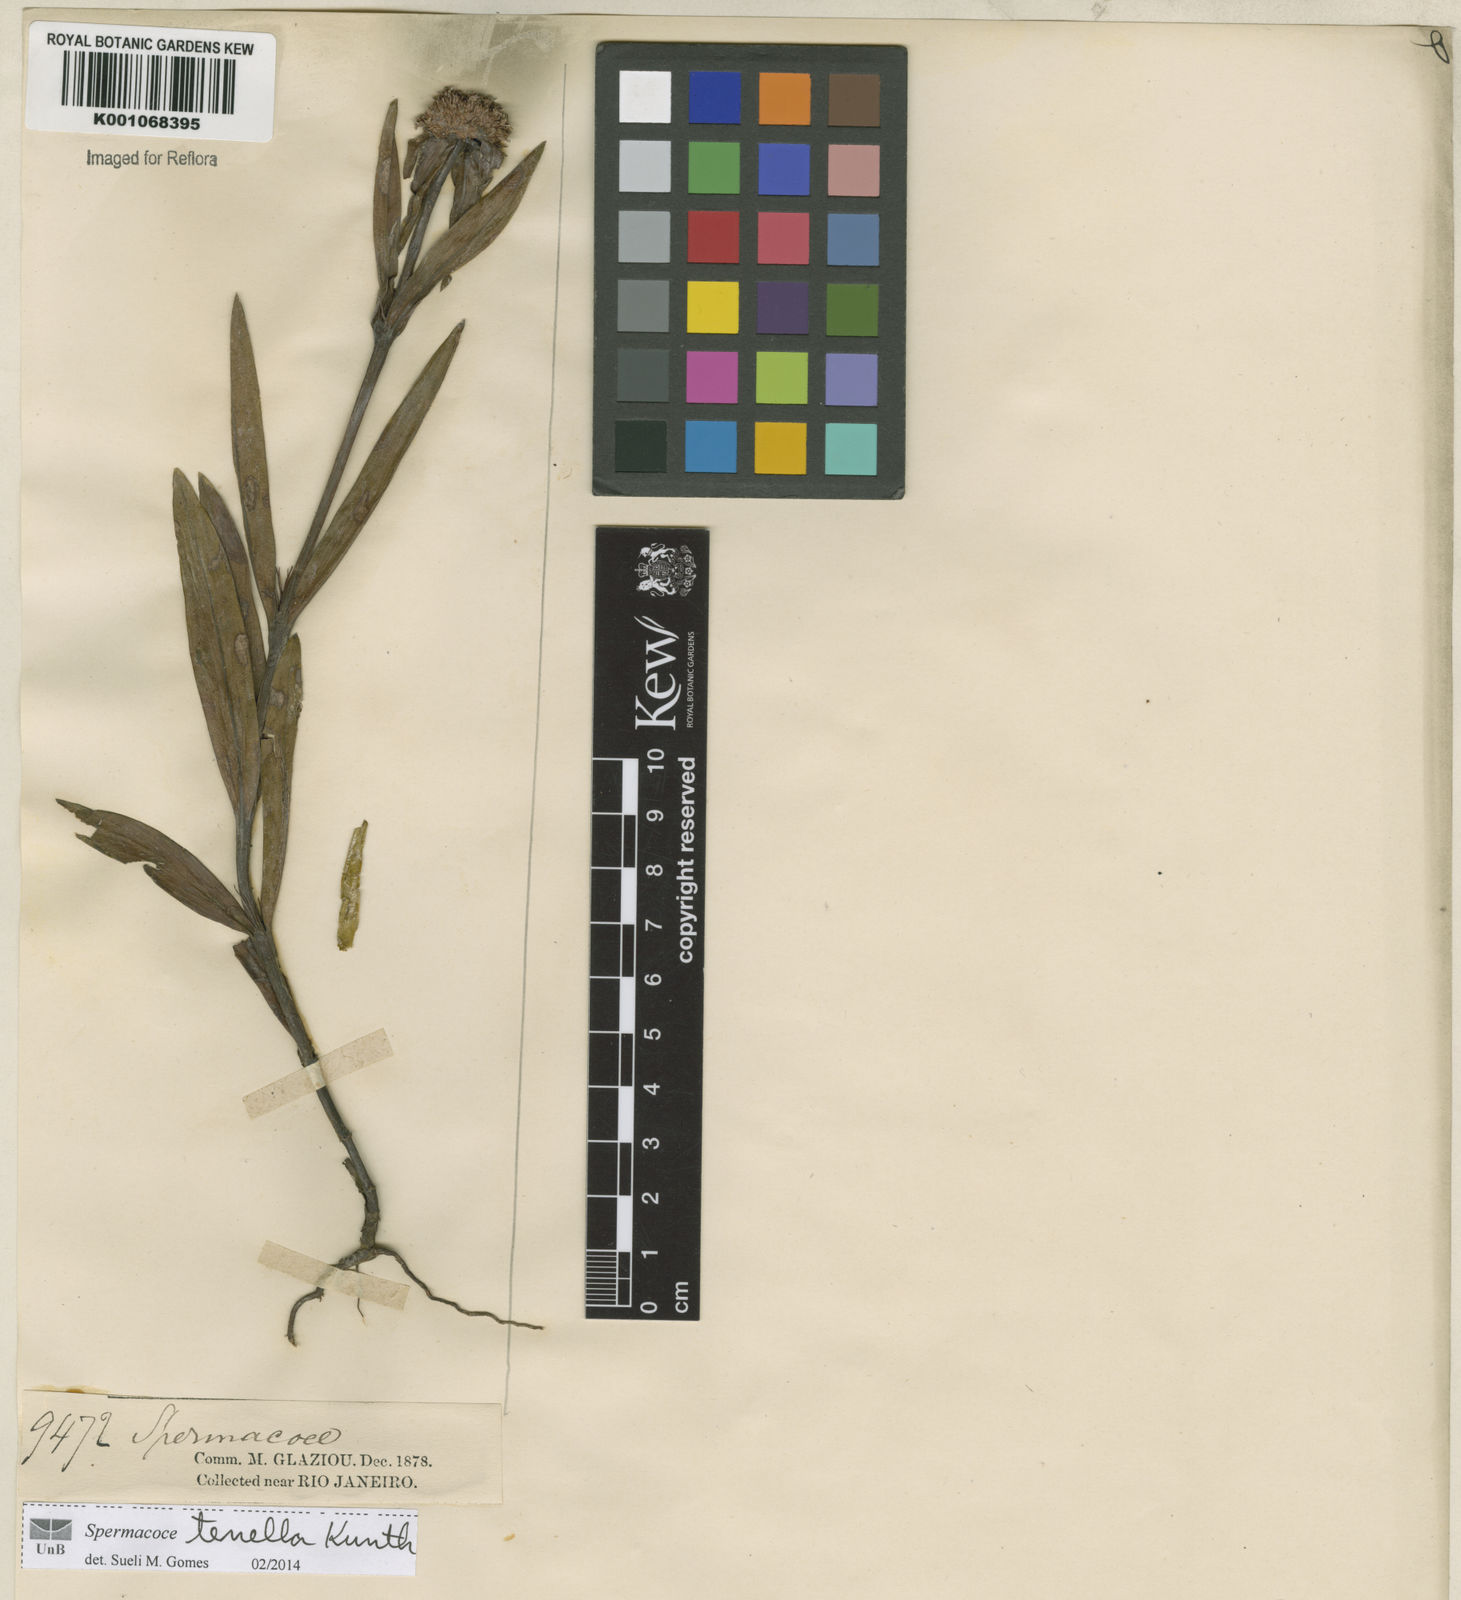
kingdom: Plantae
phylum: Tracheophyta
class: Magnoliopsida
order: Gentianales
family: Rubiaceae
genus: Spermacoce
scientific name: Spermacoce orinocensis
